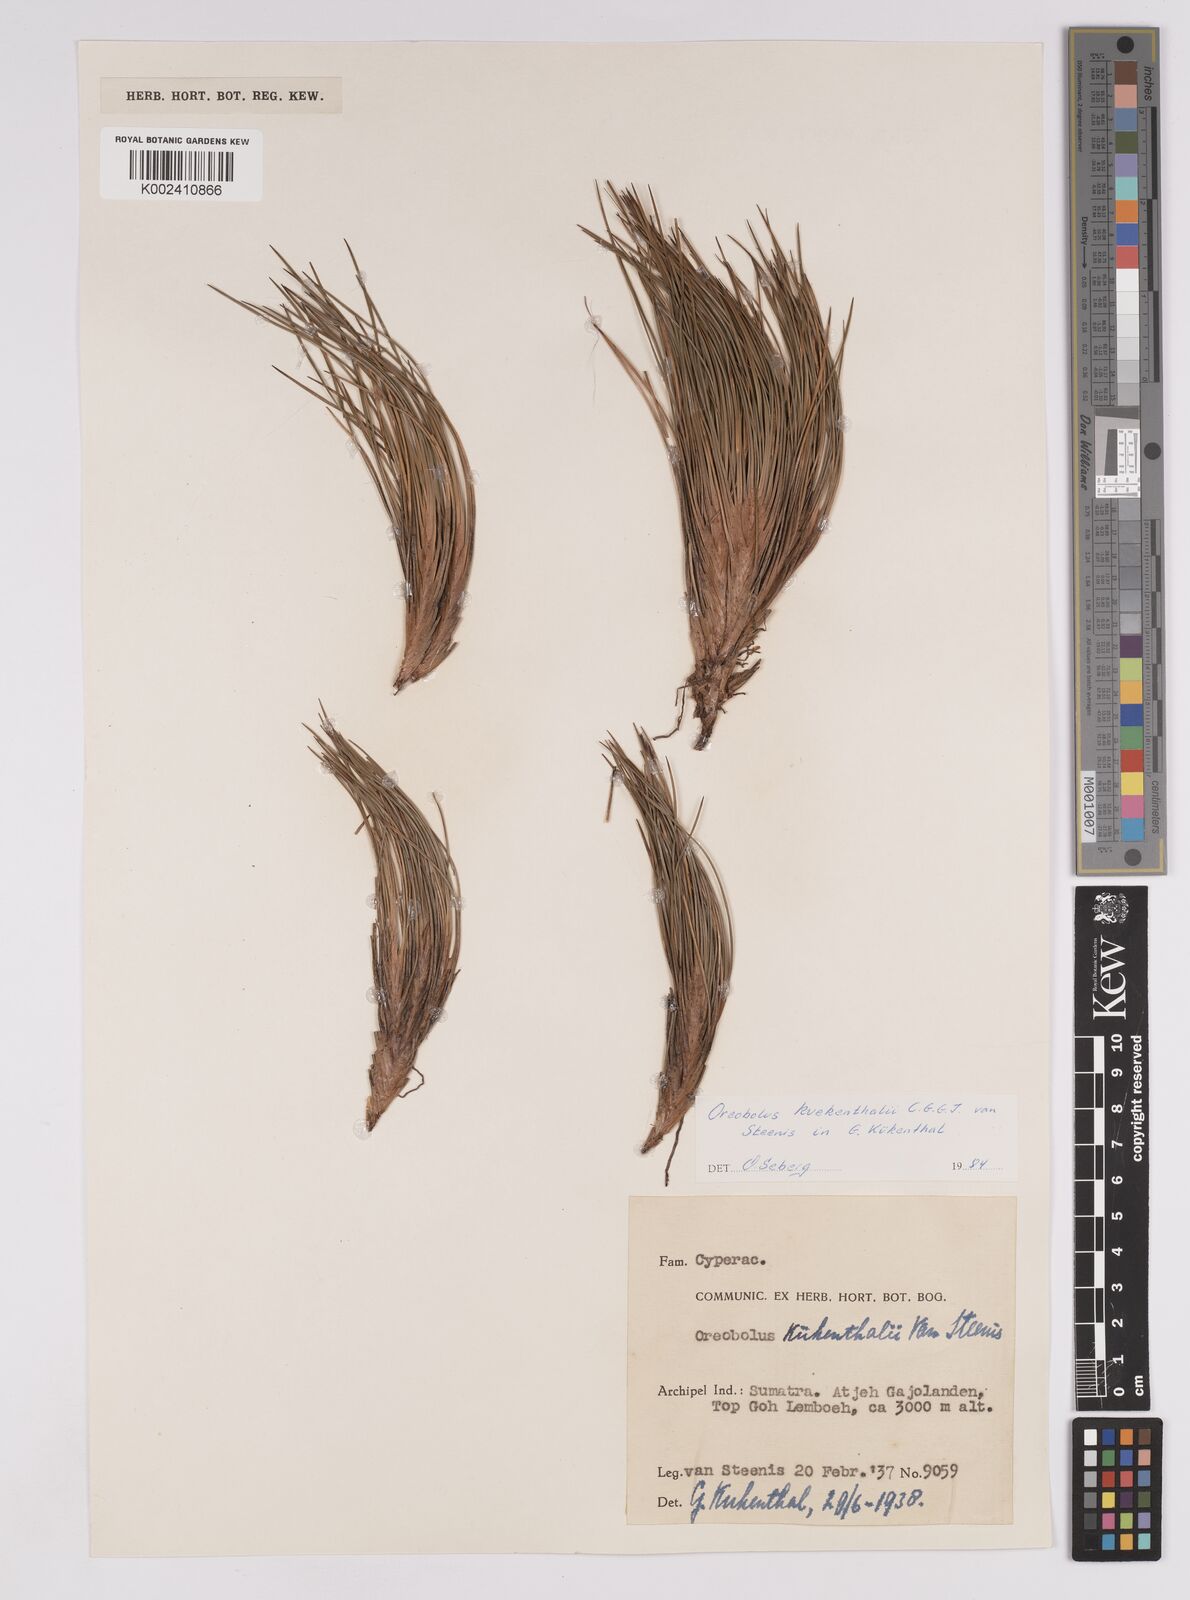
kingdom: Plantae
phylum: Tracheophyta
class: Liliopsida
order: Poales
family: Cyperaceae
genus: Oreobolus
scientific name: Oreobolus kuekenthalii
